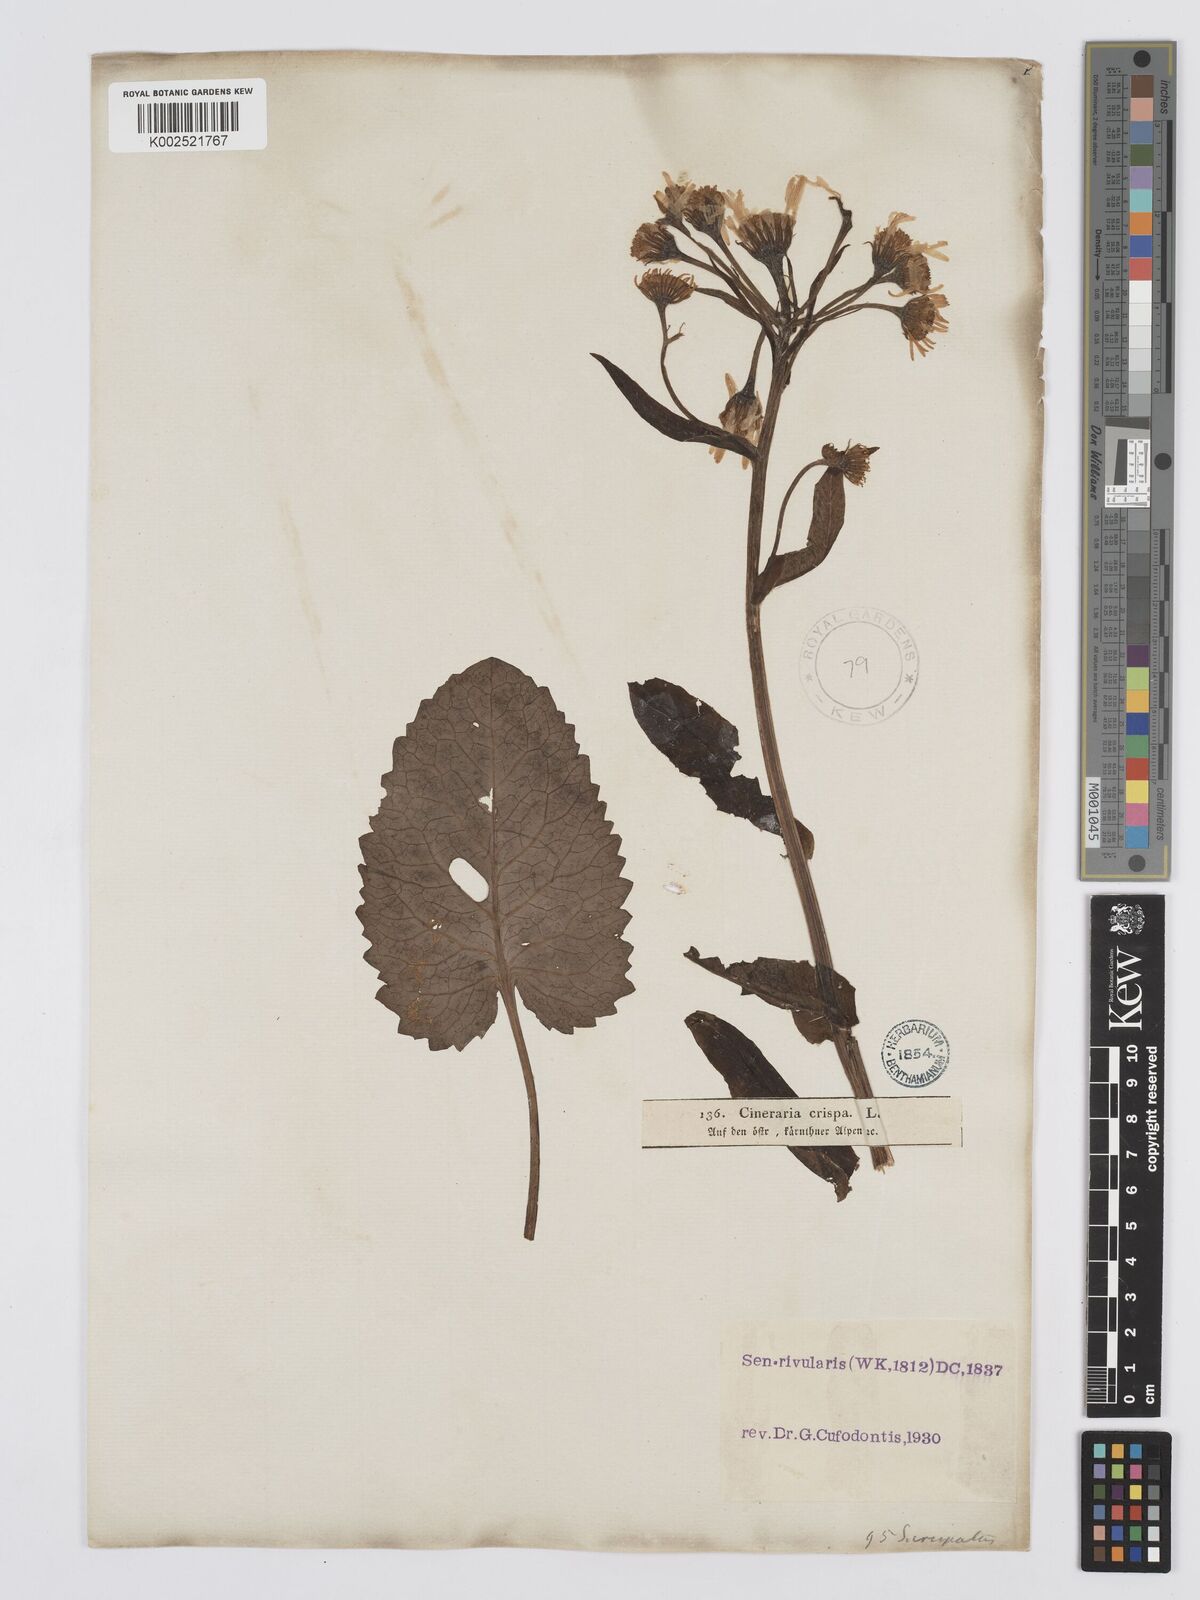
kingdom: Plantae
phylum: Tracheophyta
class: Magnoliopsida
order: Asterales
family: Asteraceae
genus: Tephroseris
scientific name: Tephroseris crispa
